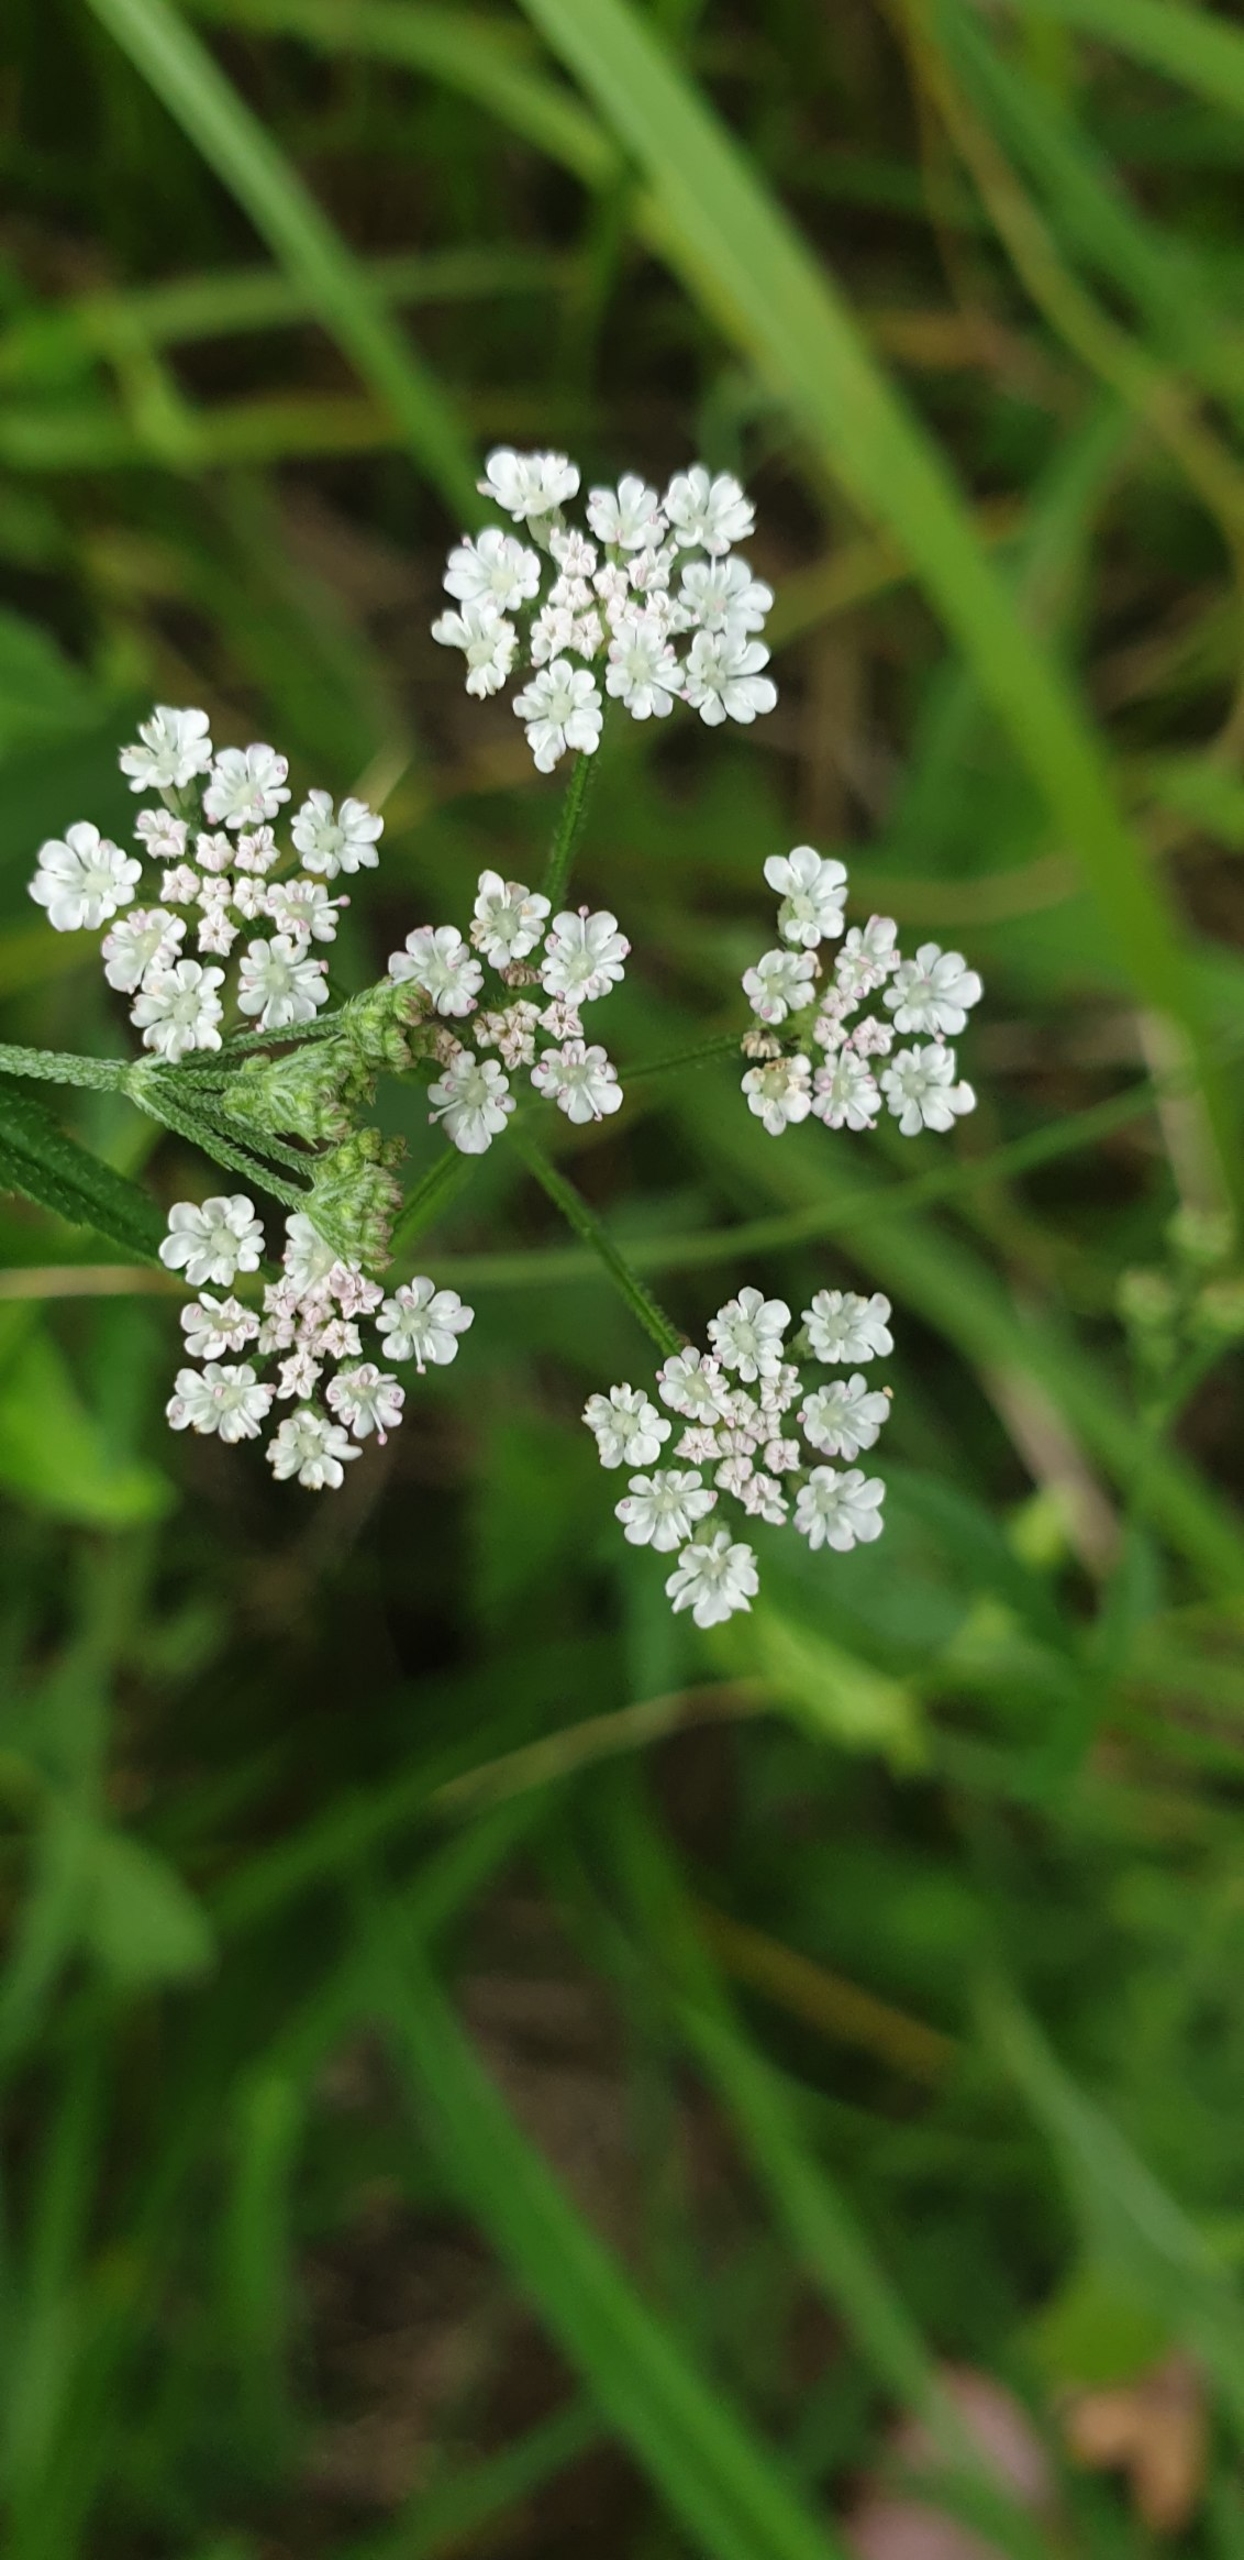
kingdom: Plantae
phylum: Tracheophyta
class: Magnoliopsida
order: Apiales
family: Apiaceae
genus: Torilis
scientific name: Torilis japonica
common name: Hvas randfrø
